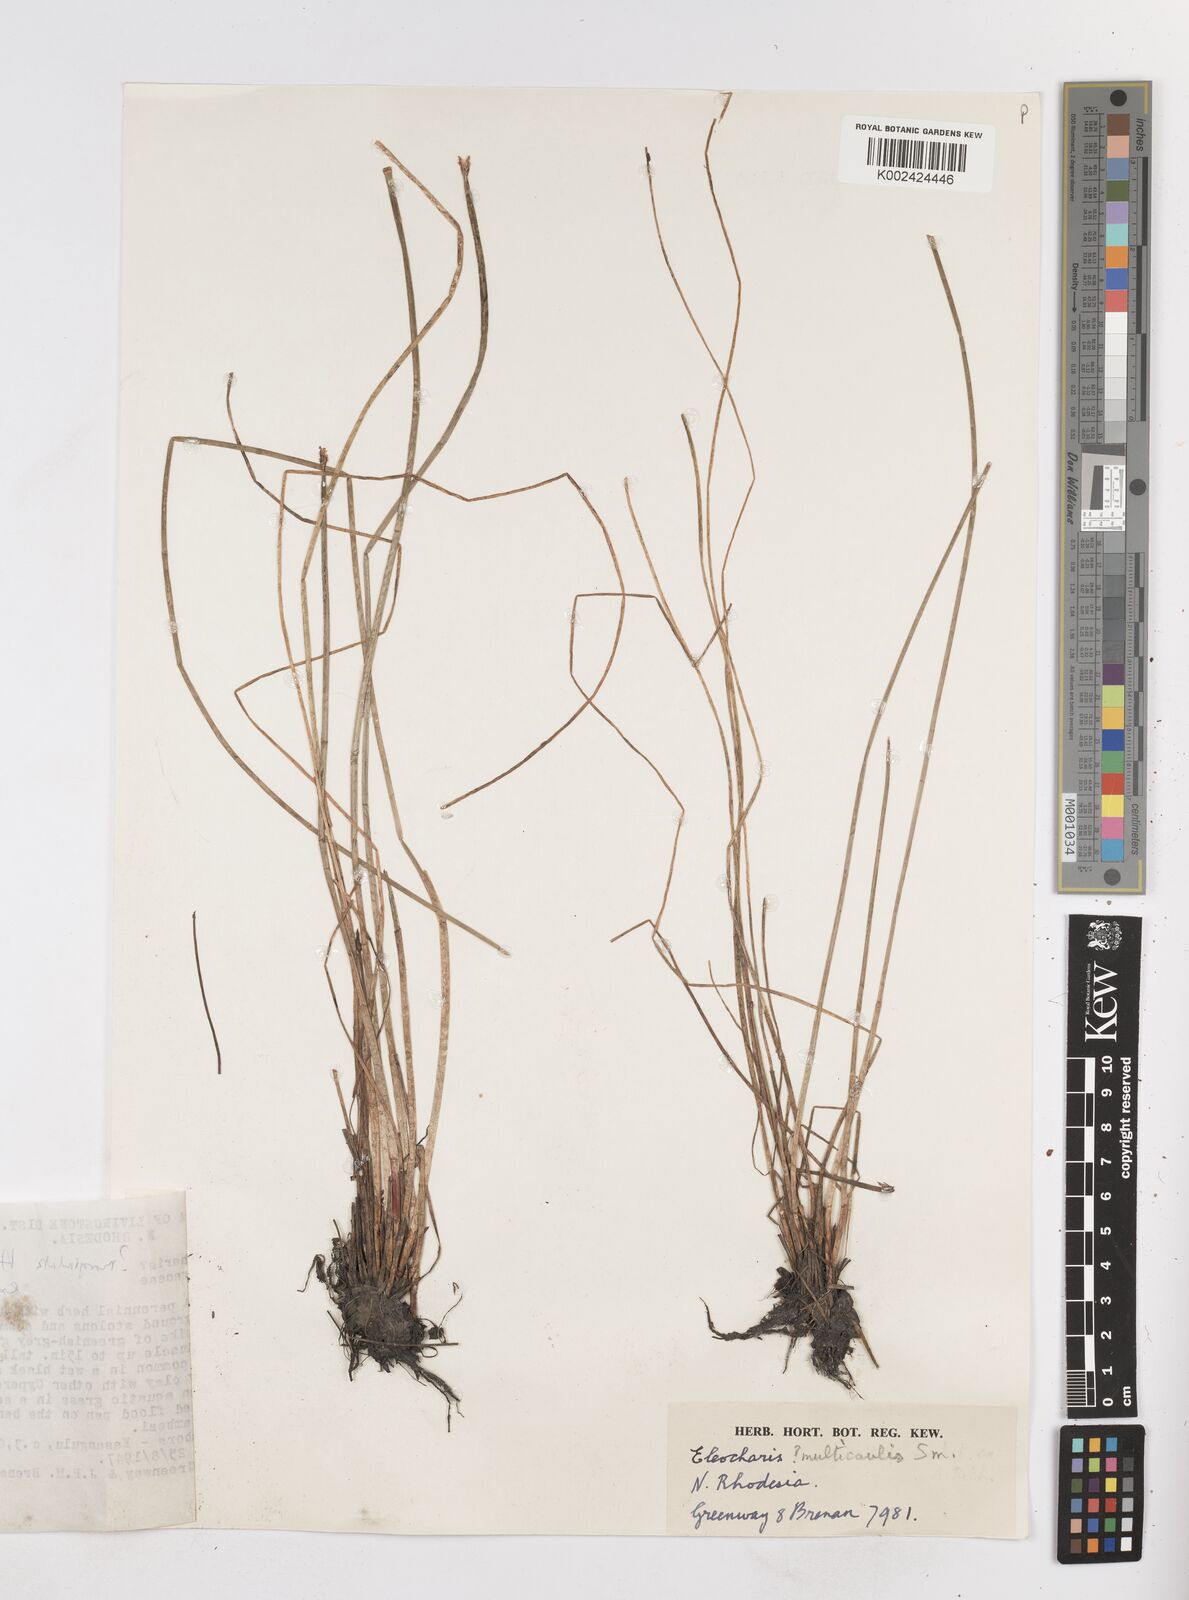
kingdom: Plantae
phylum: Tracheophyta
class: Liliopsida
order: Poales
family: Cyperaceae
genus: Eleocharis
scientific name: Eleocharis
